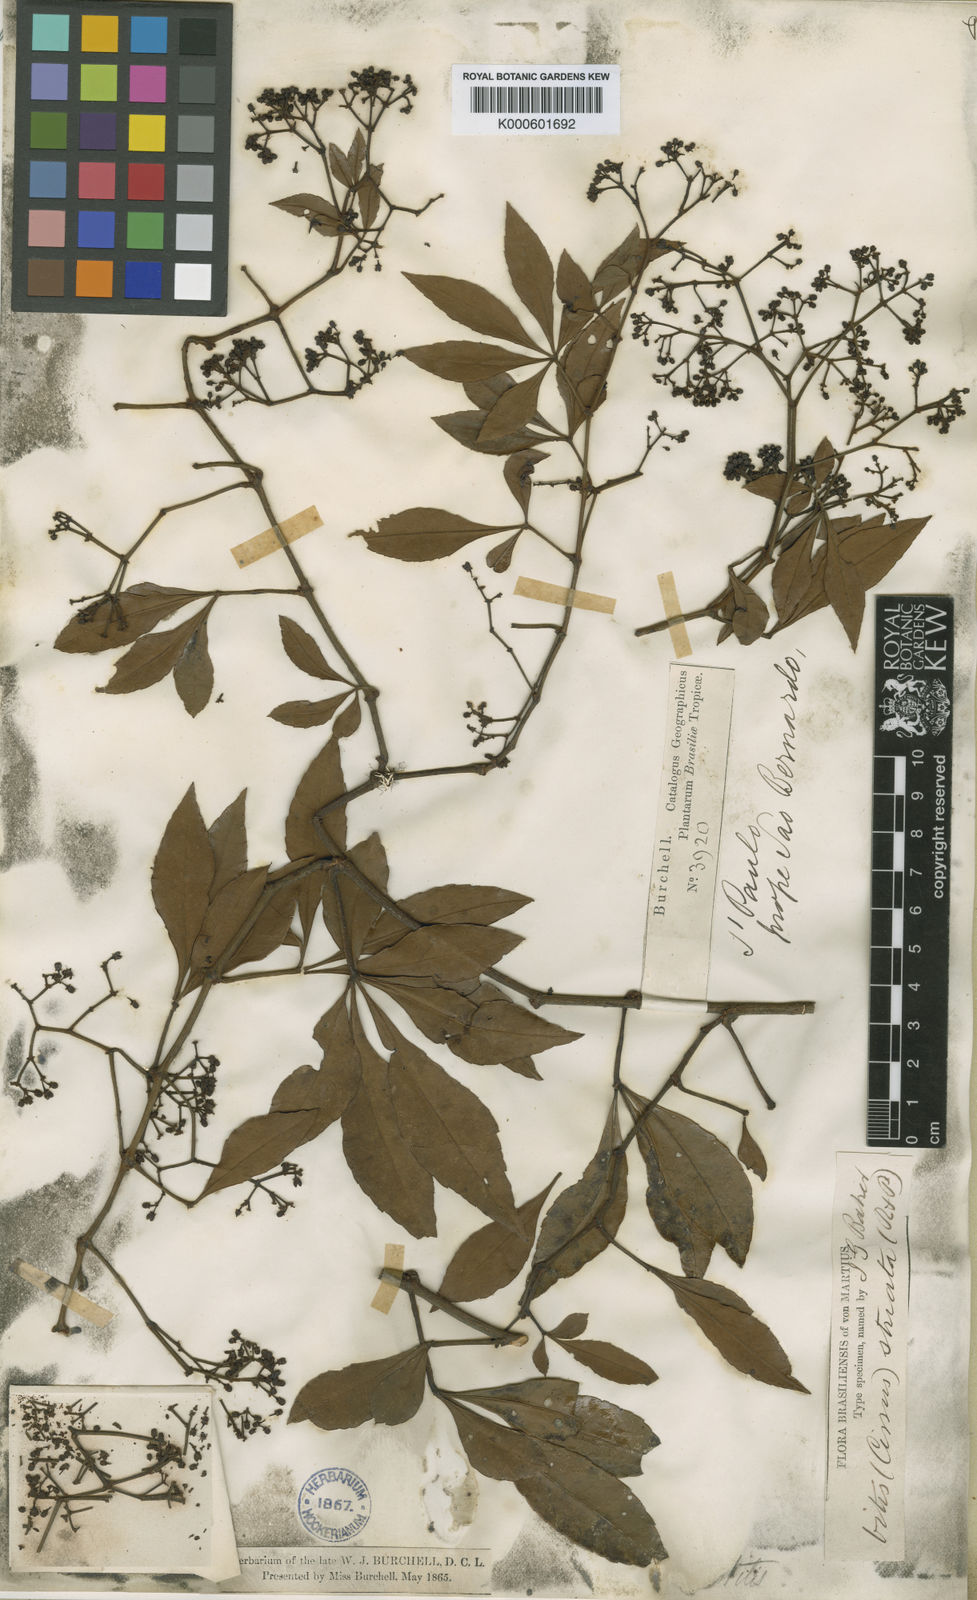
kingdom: Plantae
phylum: Tracheophyta
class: Magnoliopsida
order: Vitales
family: Vitaceae
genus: Clematicissus
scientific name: Clematicissus striata
